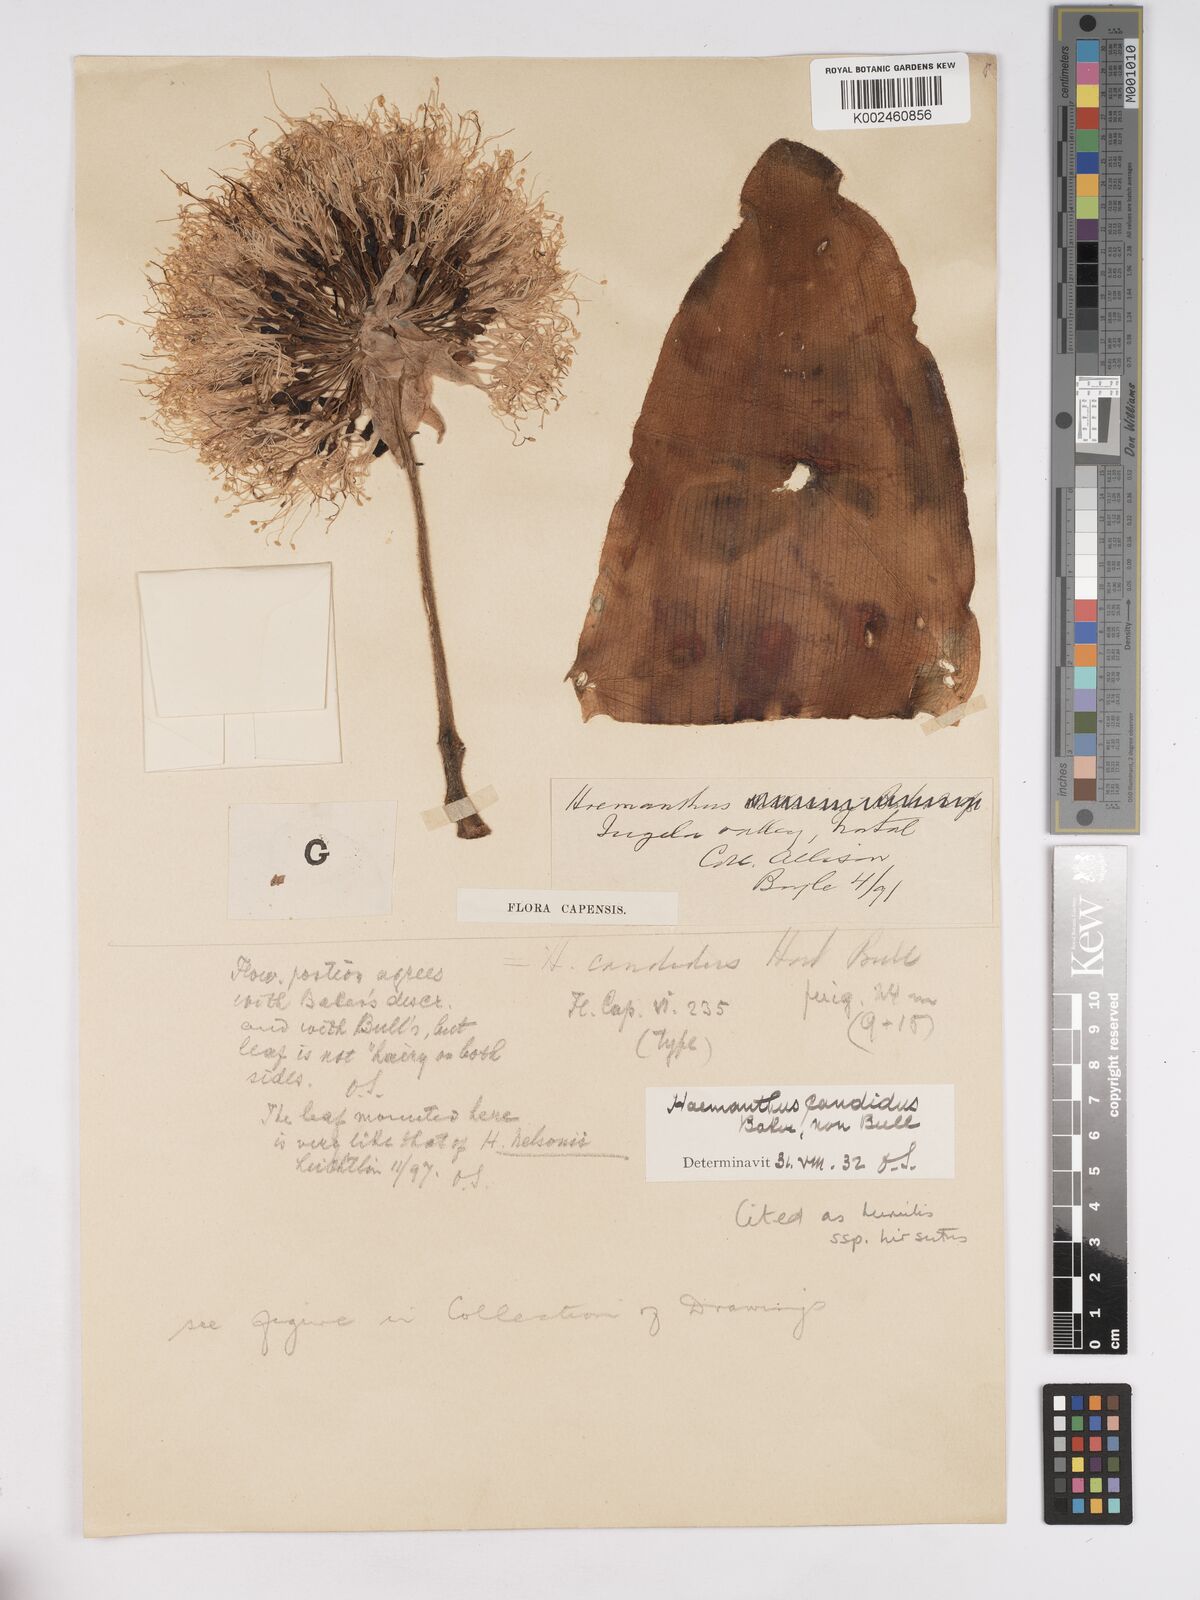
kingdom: Plantae
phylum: Tracheophyta
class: Liliopsida
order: Asparagales
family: Amaryllidaceae
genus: Haemanthus
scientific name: Haemanthus humilis
